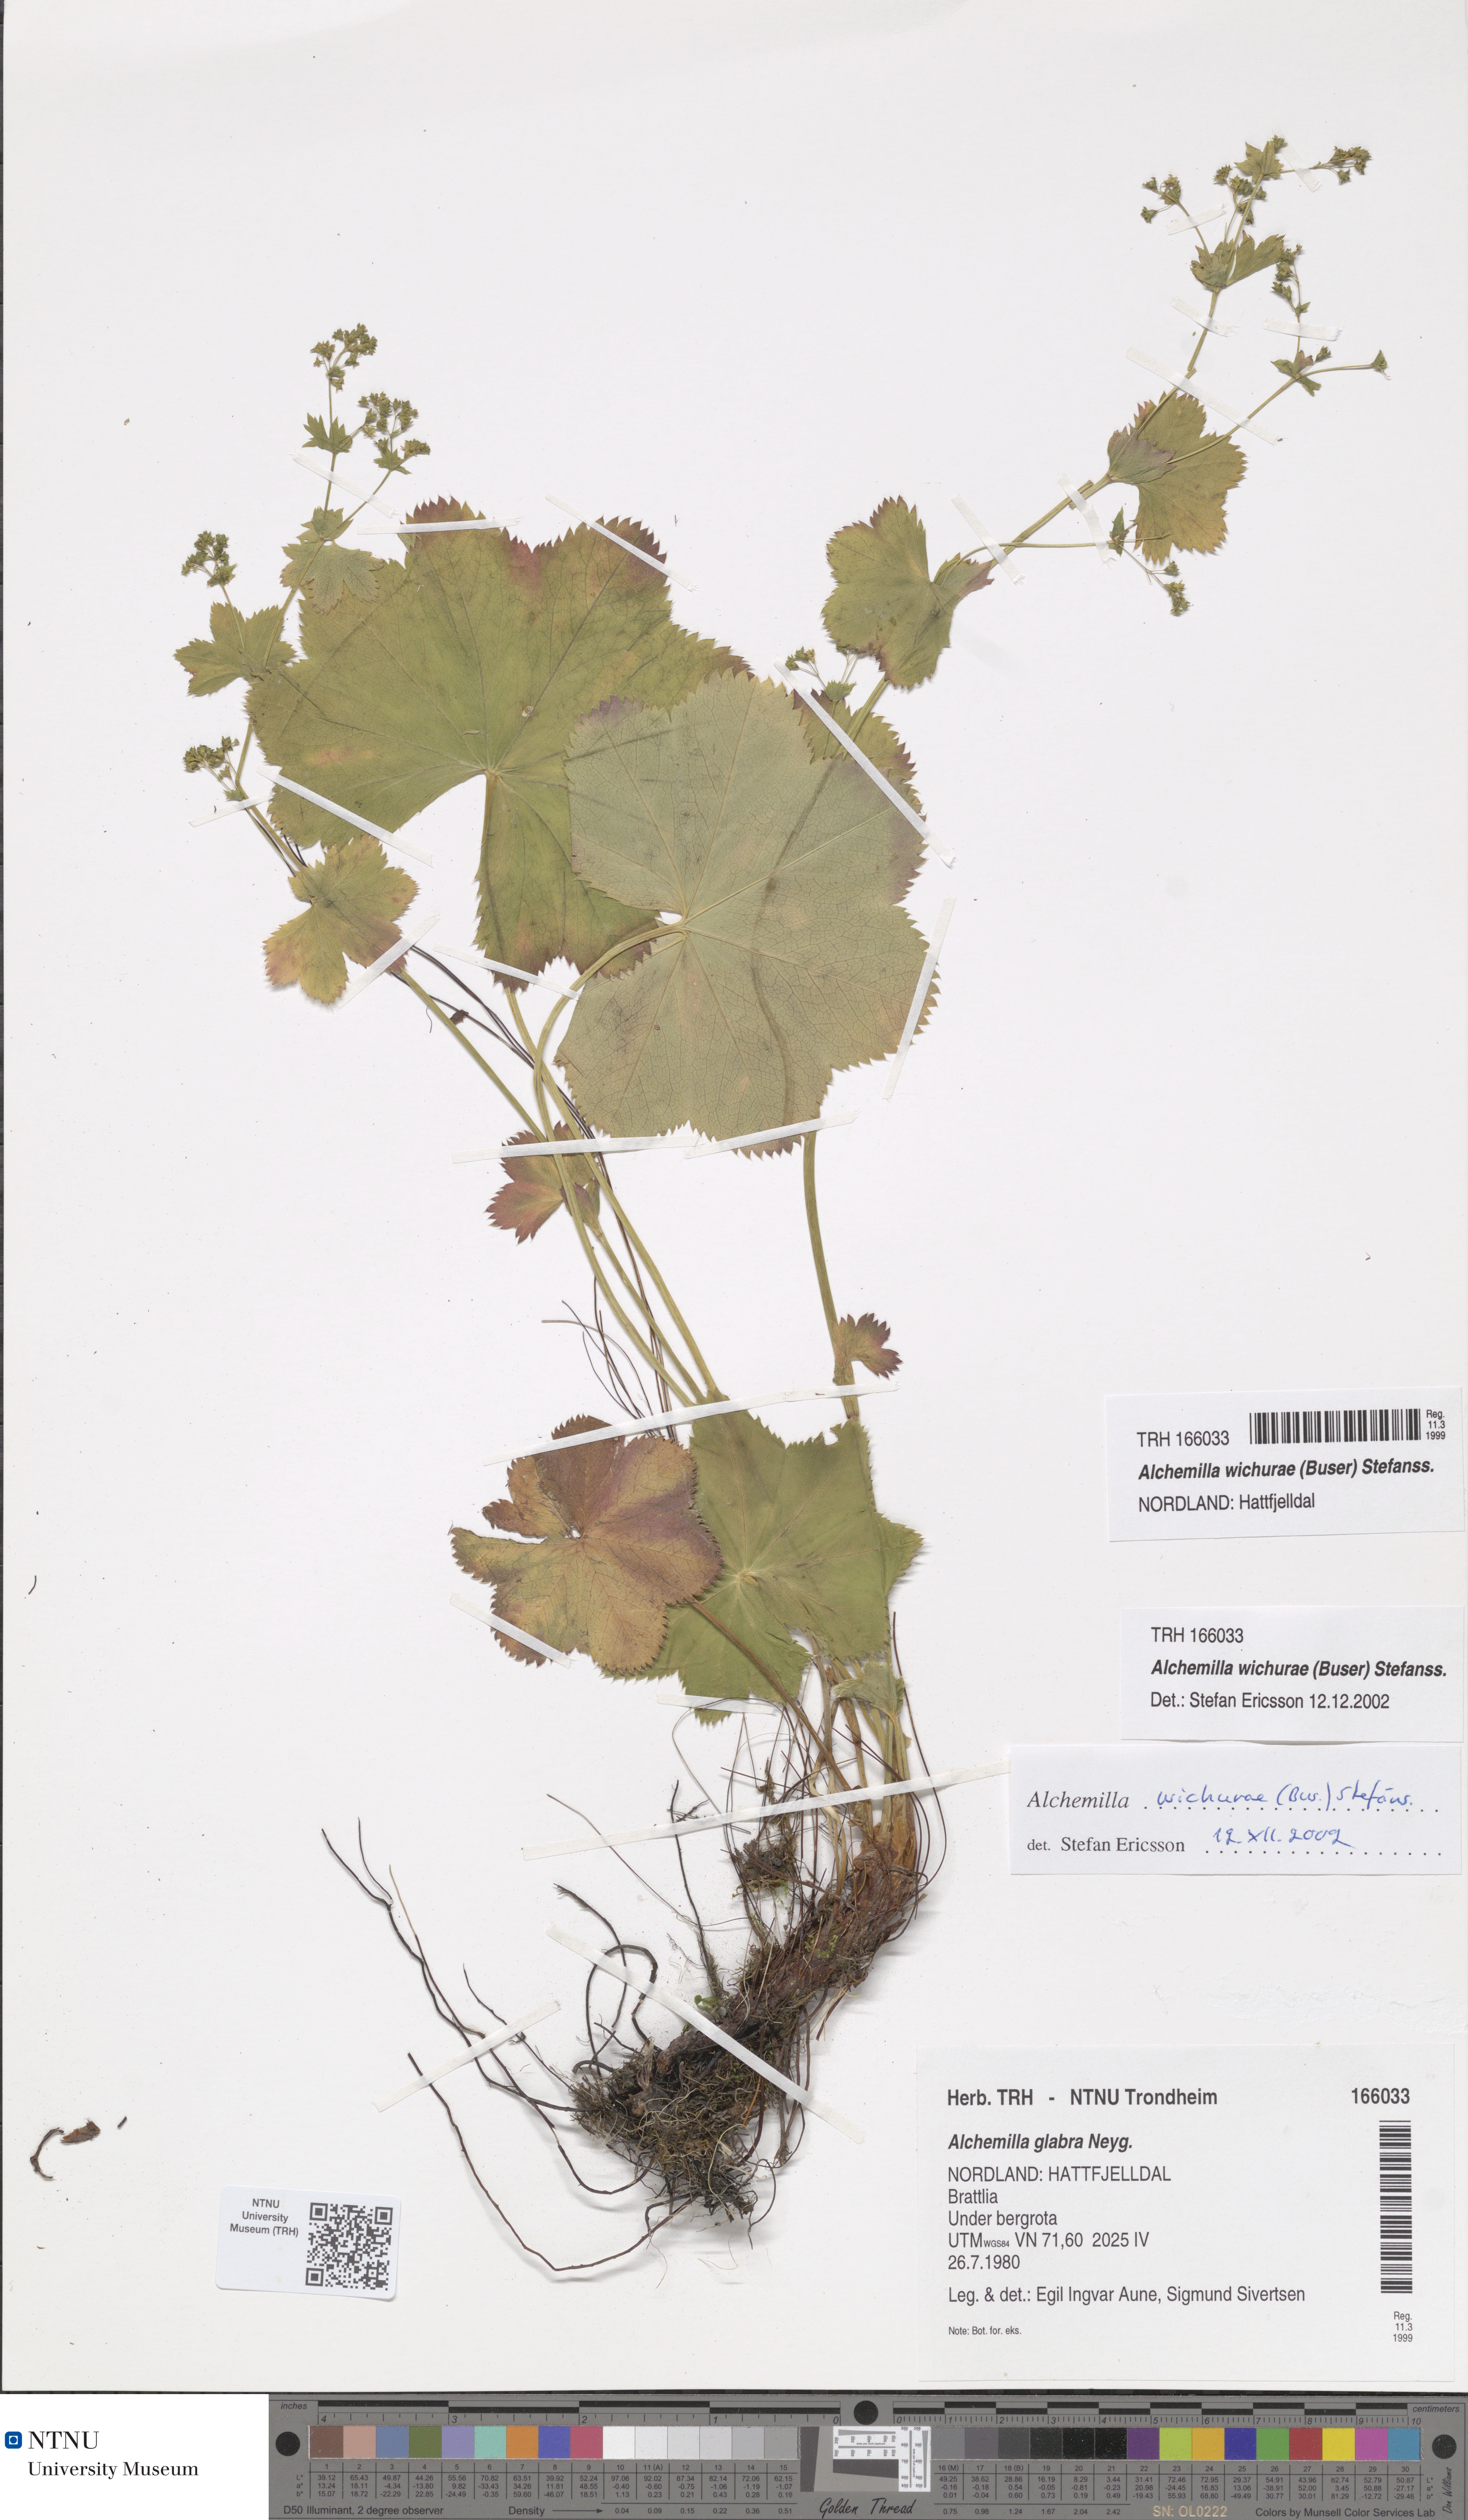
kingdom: Plantae
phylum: Tracheophyta
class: Magnoliopsida
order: Rosales
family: Rosaceae
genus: Alchemilla
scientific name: Alchemilla wichurae
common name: Rock lady's mantle
